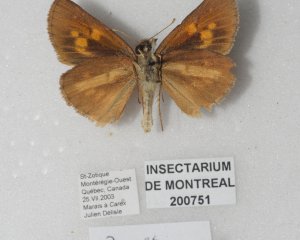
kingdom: Animalia
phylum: Arthropoda
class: Insecta
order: Lepidoptera
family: Hesperiidae
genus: Poanes
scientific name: Poanes viator
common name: Broad-winged Skipper
